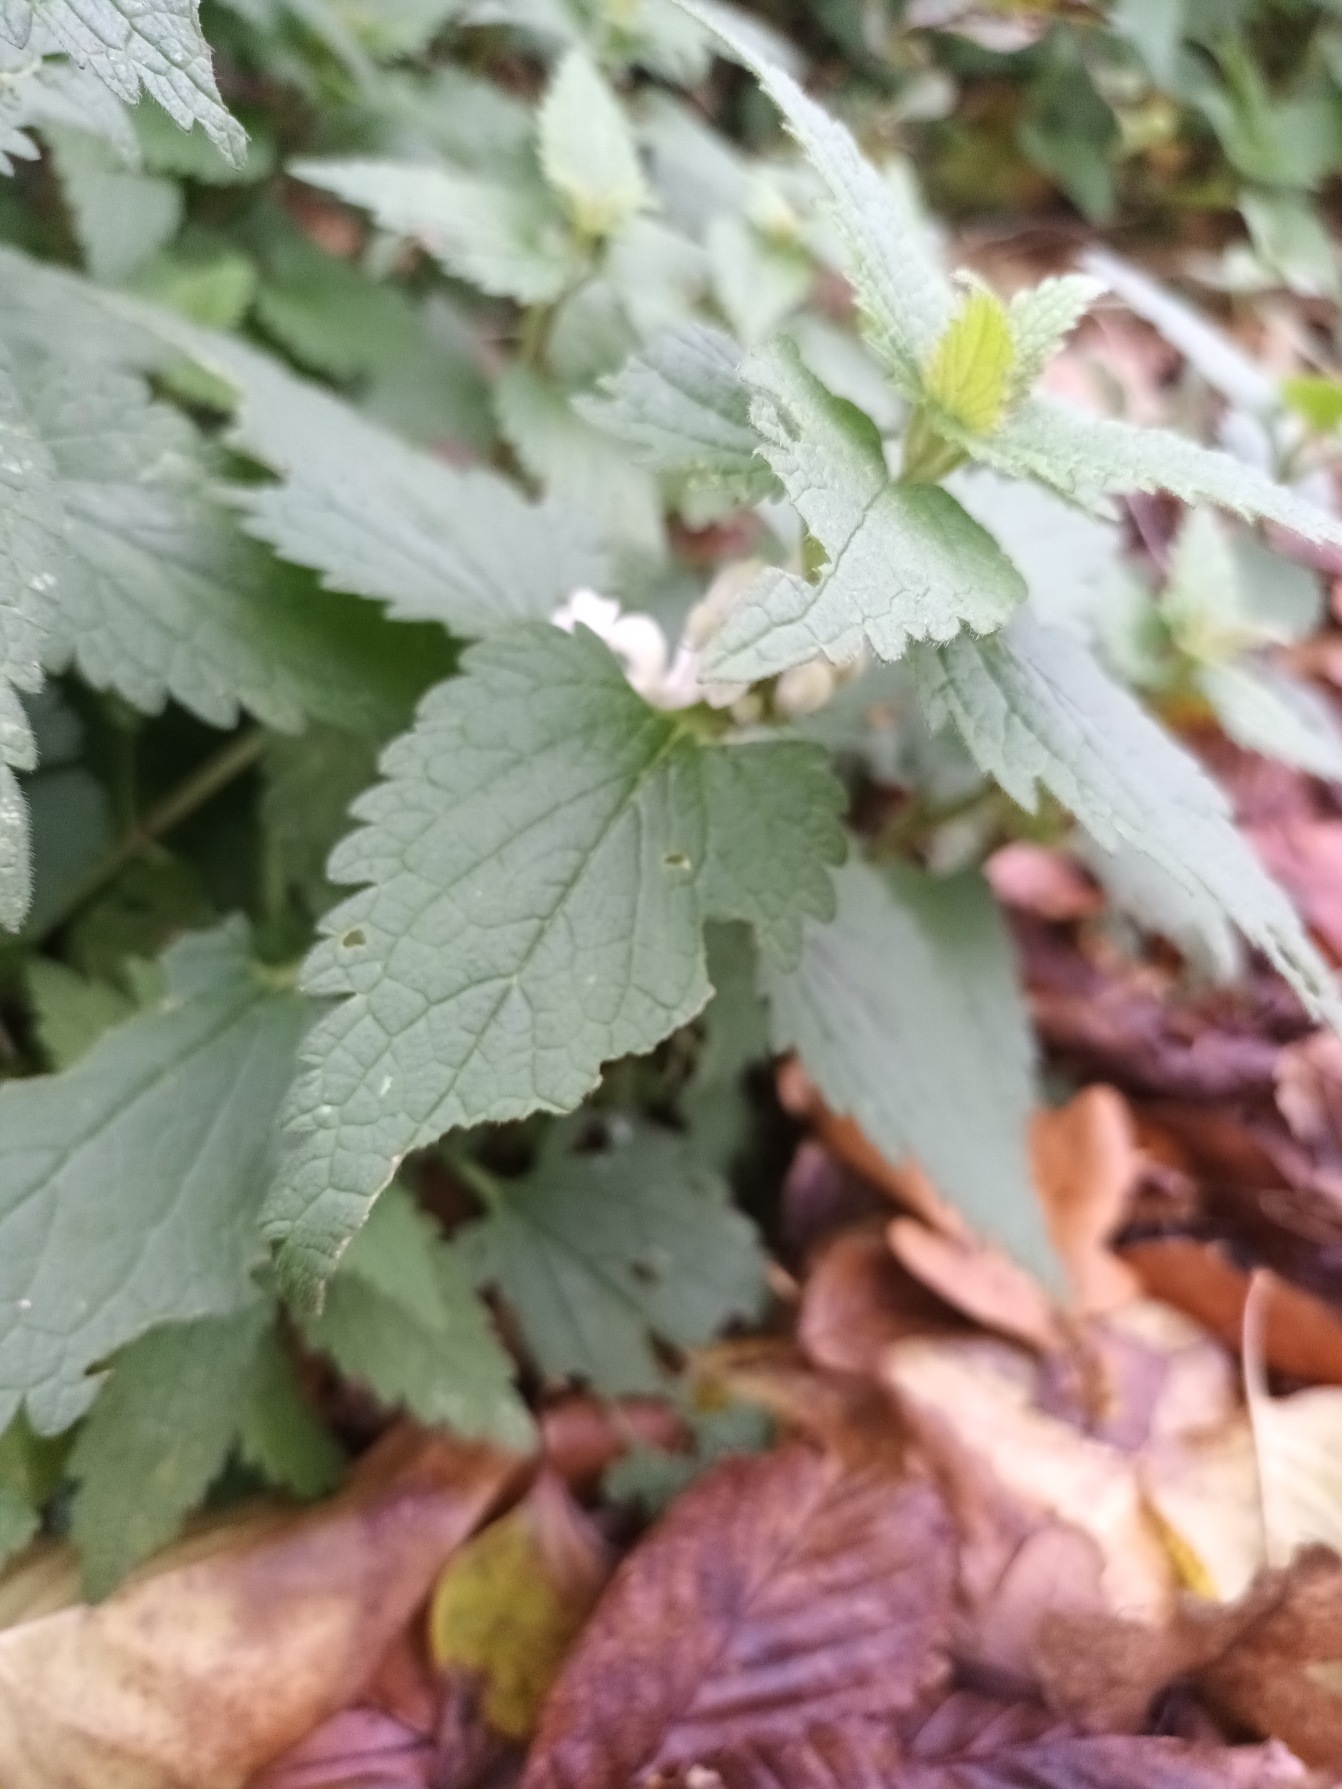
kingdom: Plantae
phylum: Tracheophyta
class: Magnoliopsida
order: Lamiales
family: Lamiaceae
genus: Lamium
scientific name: Lamium album
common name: Døvnælde
